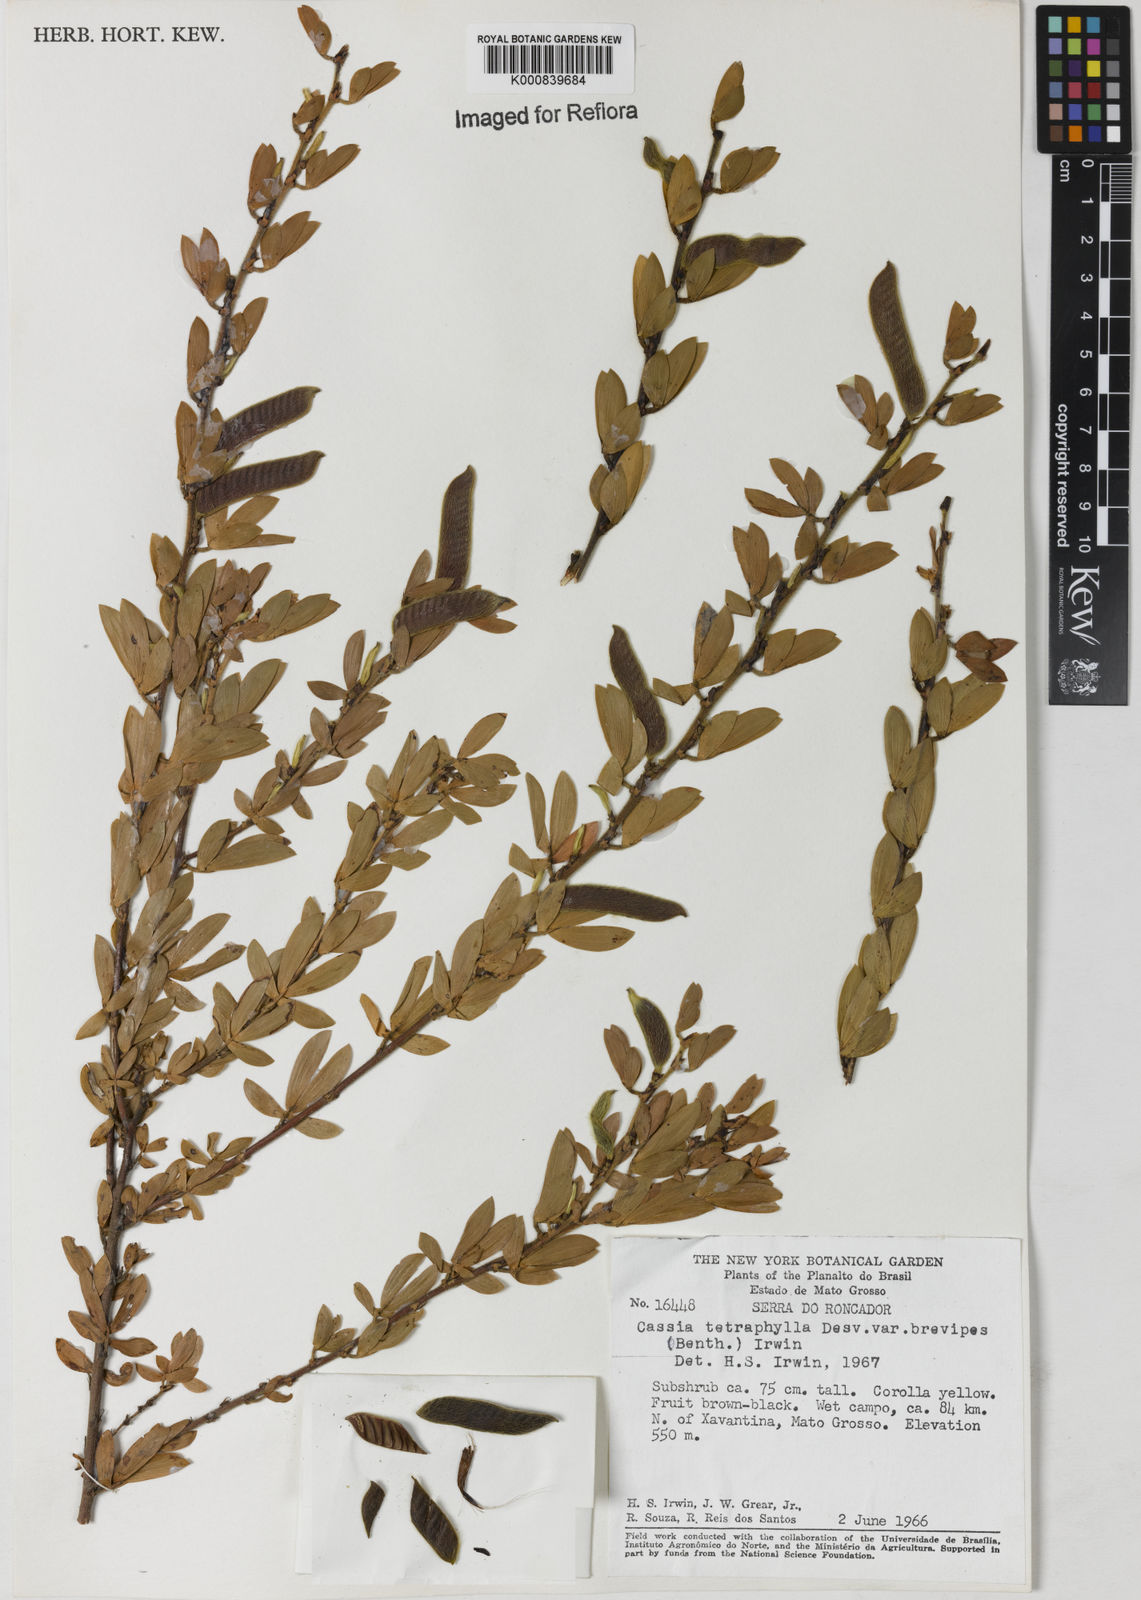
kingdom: Plantae
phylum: Tracheophyta
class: Magnoliopsida
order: Fabales
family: Fabaceae
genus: Chamaecrista
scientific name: Chamaecrista desvauxii
